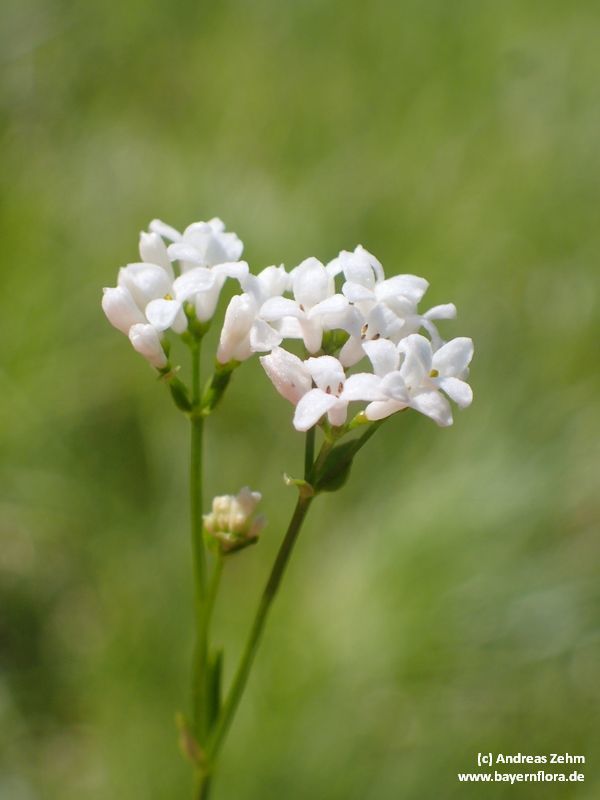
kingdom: Plantae
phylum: Tracheophyta
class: Magnoliopsida
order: Gentianales
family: Rubiaceae
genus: Asperula
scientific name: Asperula tinctoria
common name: Dyer's woodruff
